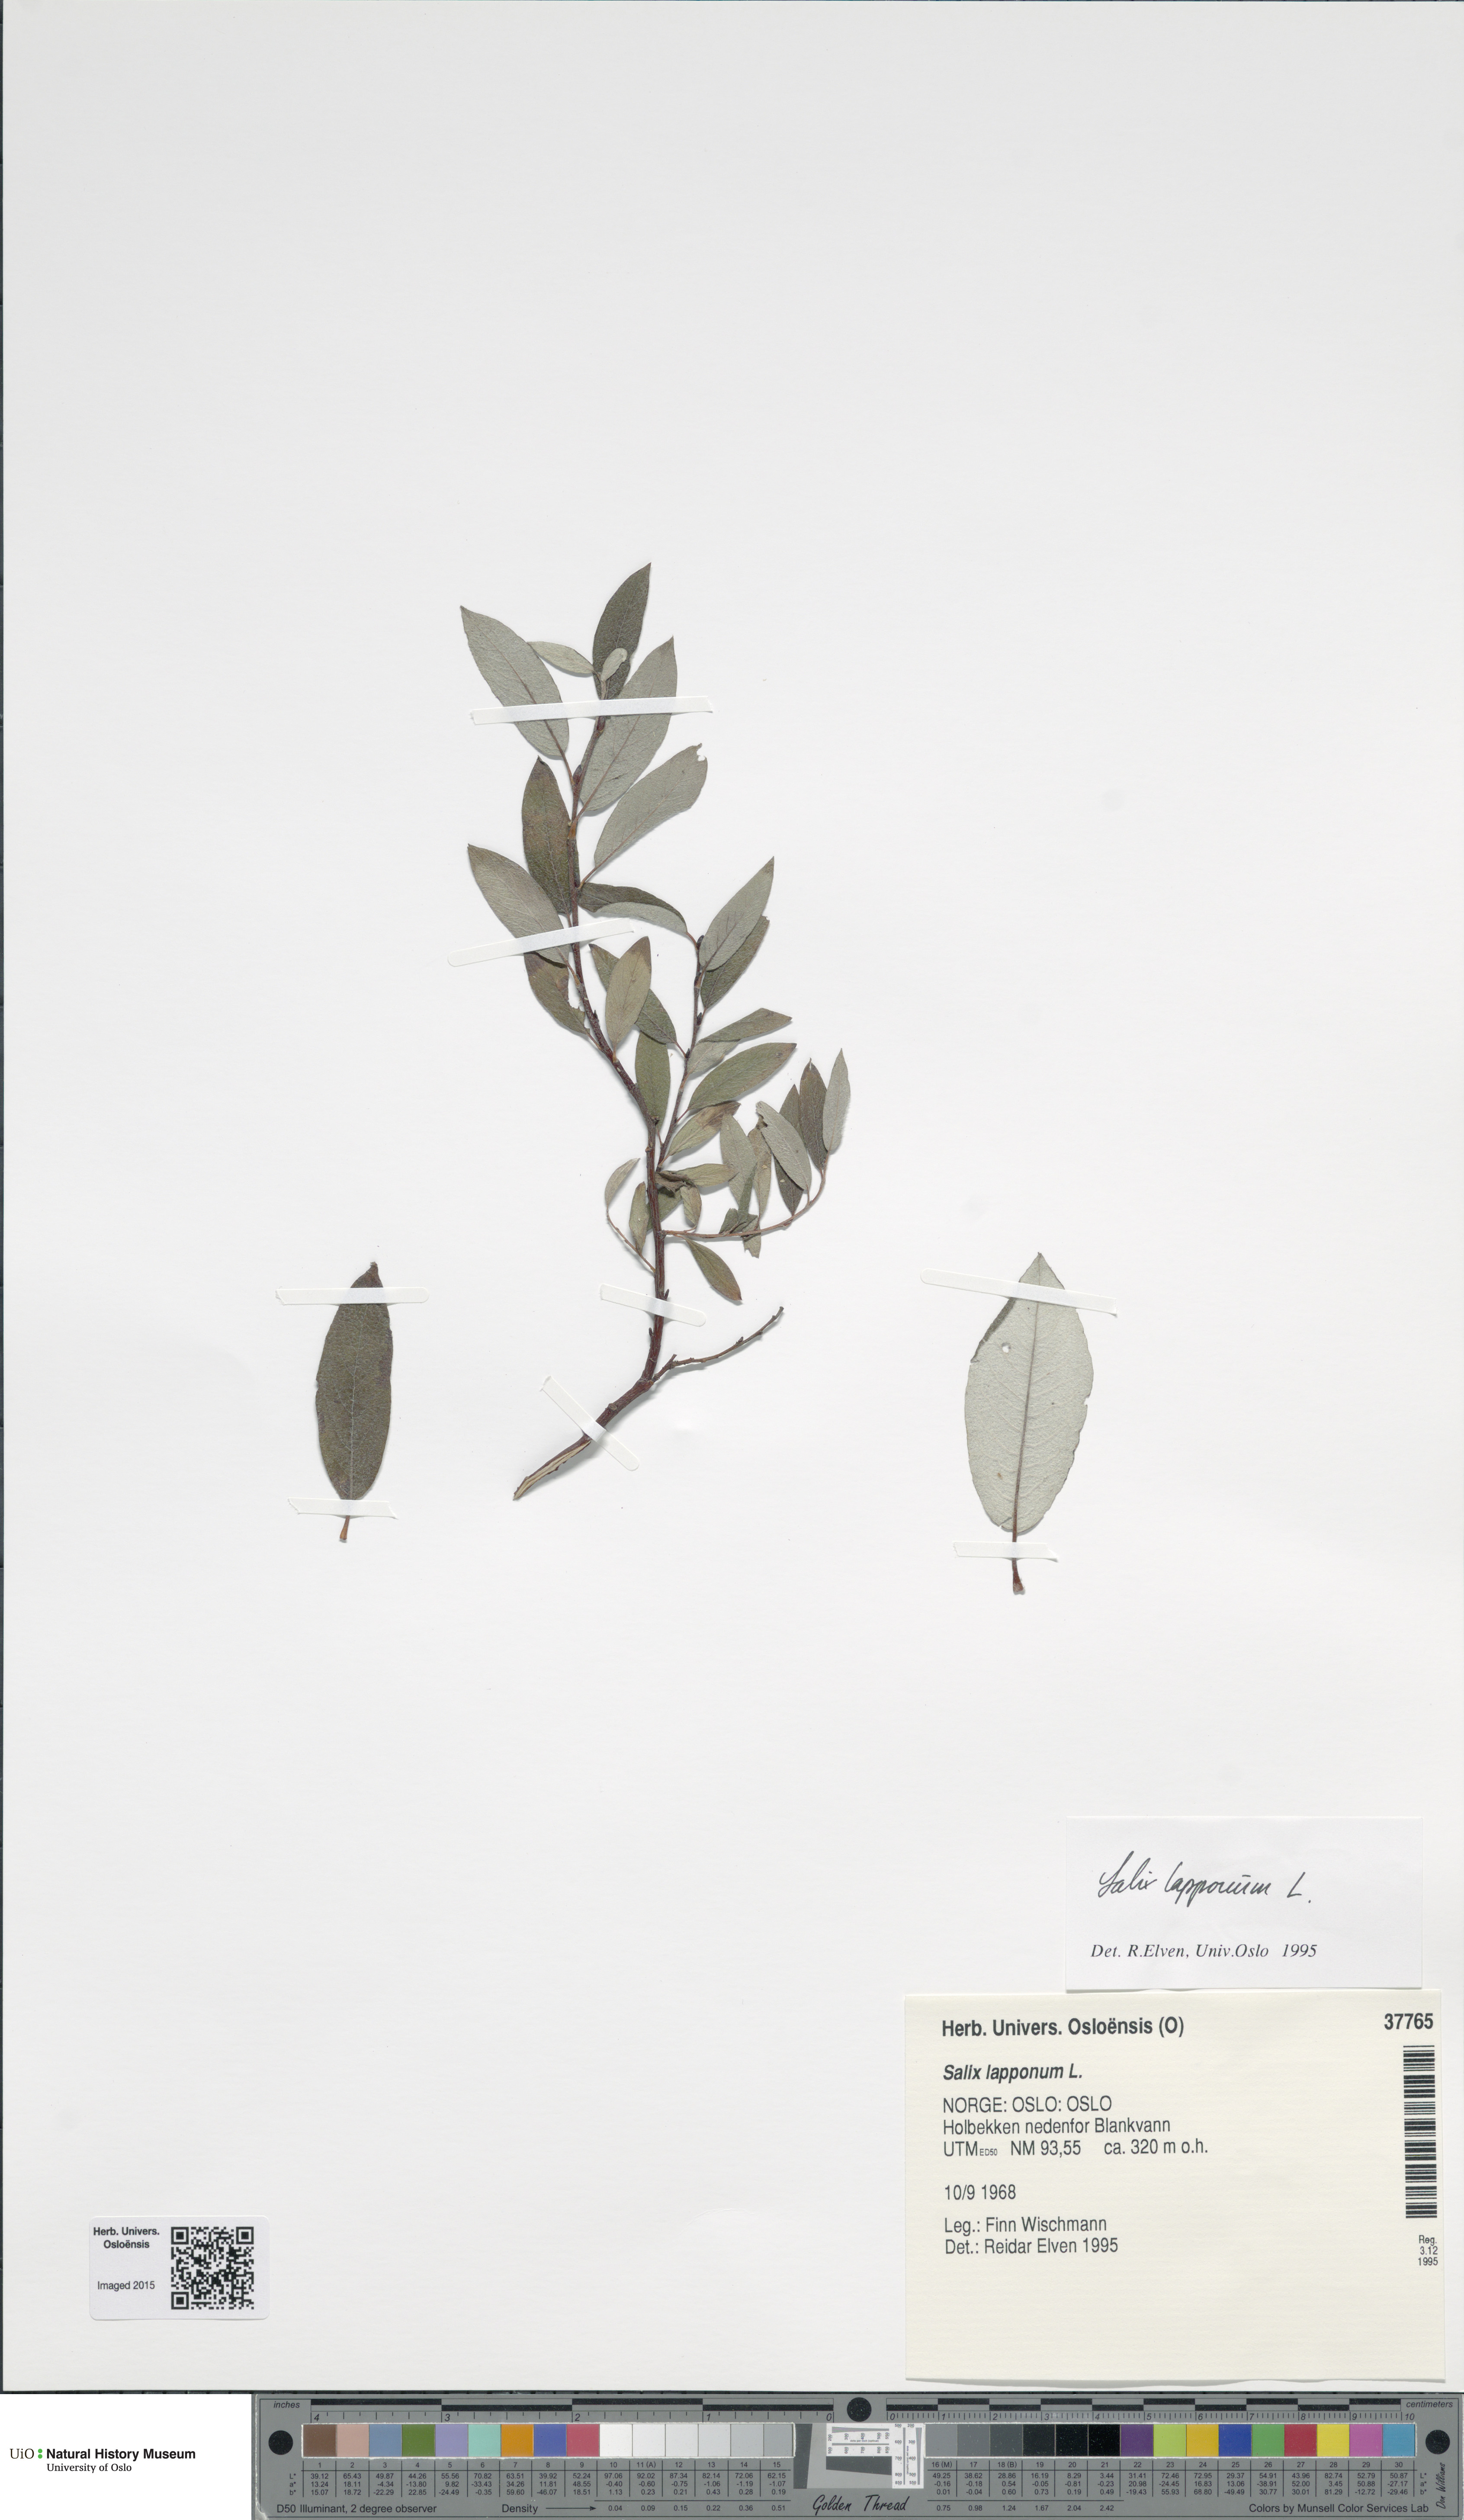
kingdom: Plantae
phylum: Tracheophyta
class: Magnoliopsida
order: Malpighiales
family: Salicaceae
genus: Salix
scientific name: Salix lapponum
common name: Downy willow
